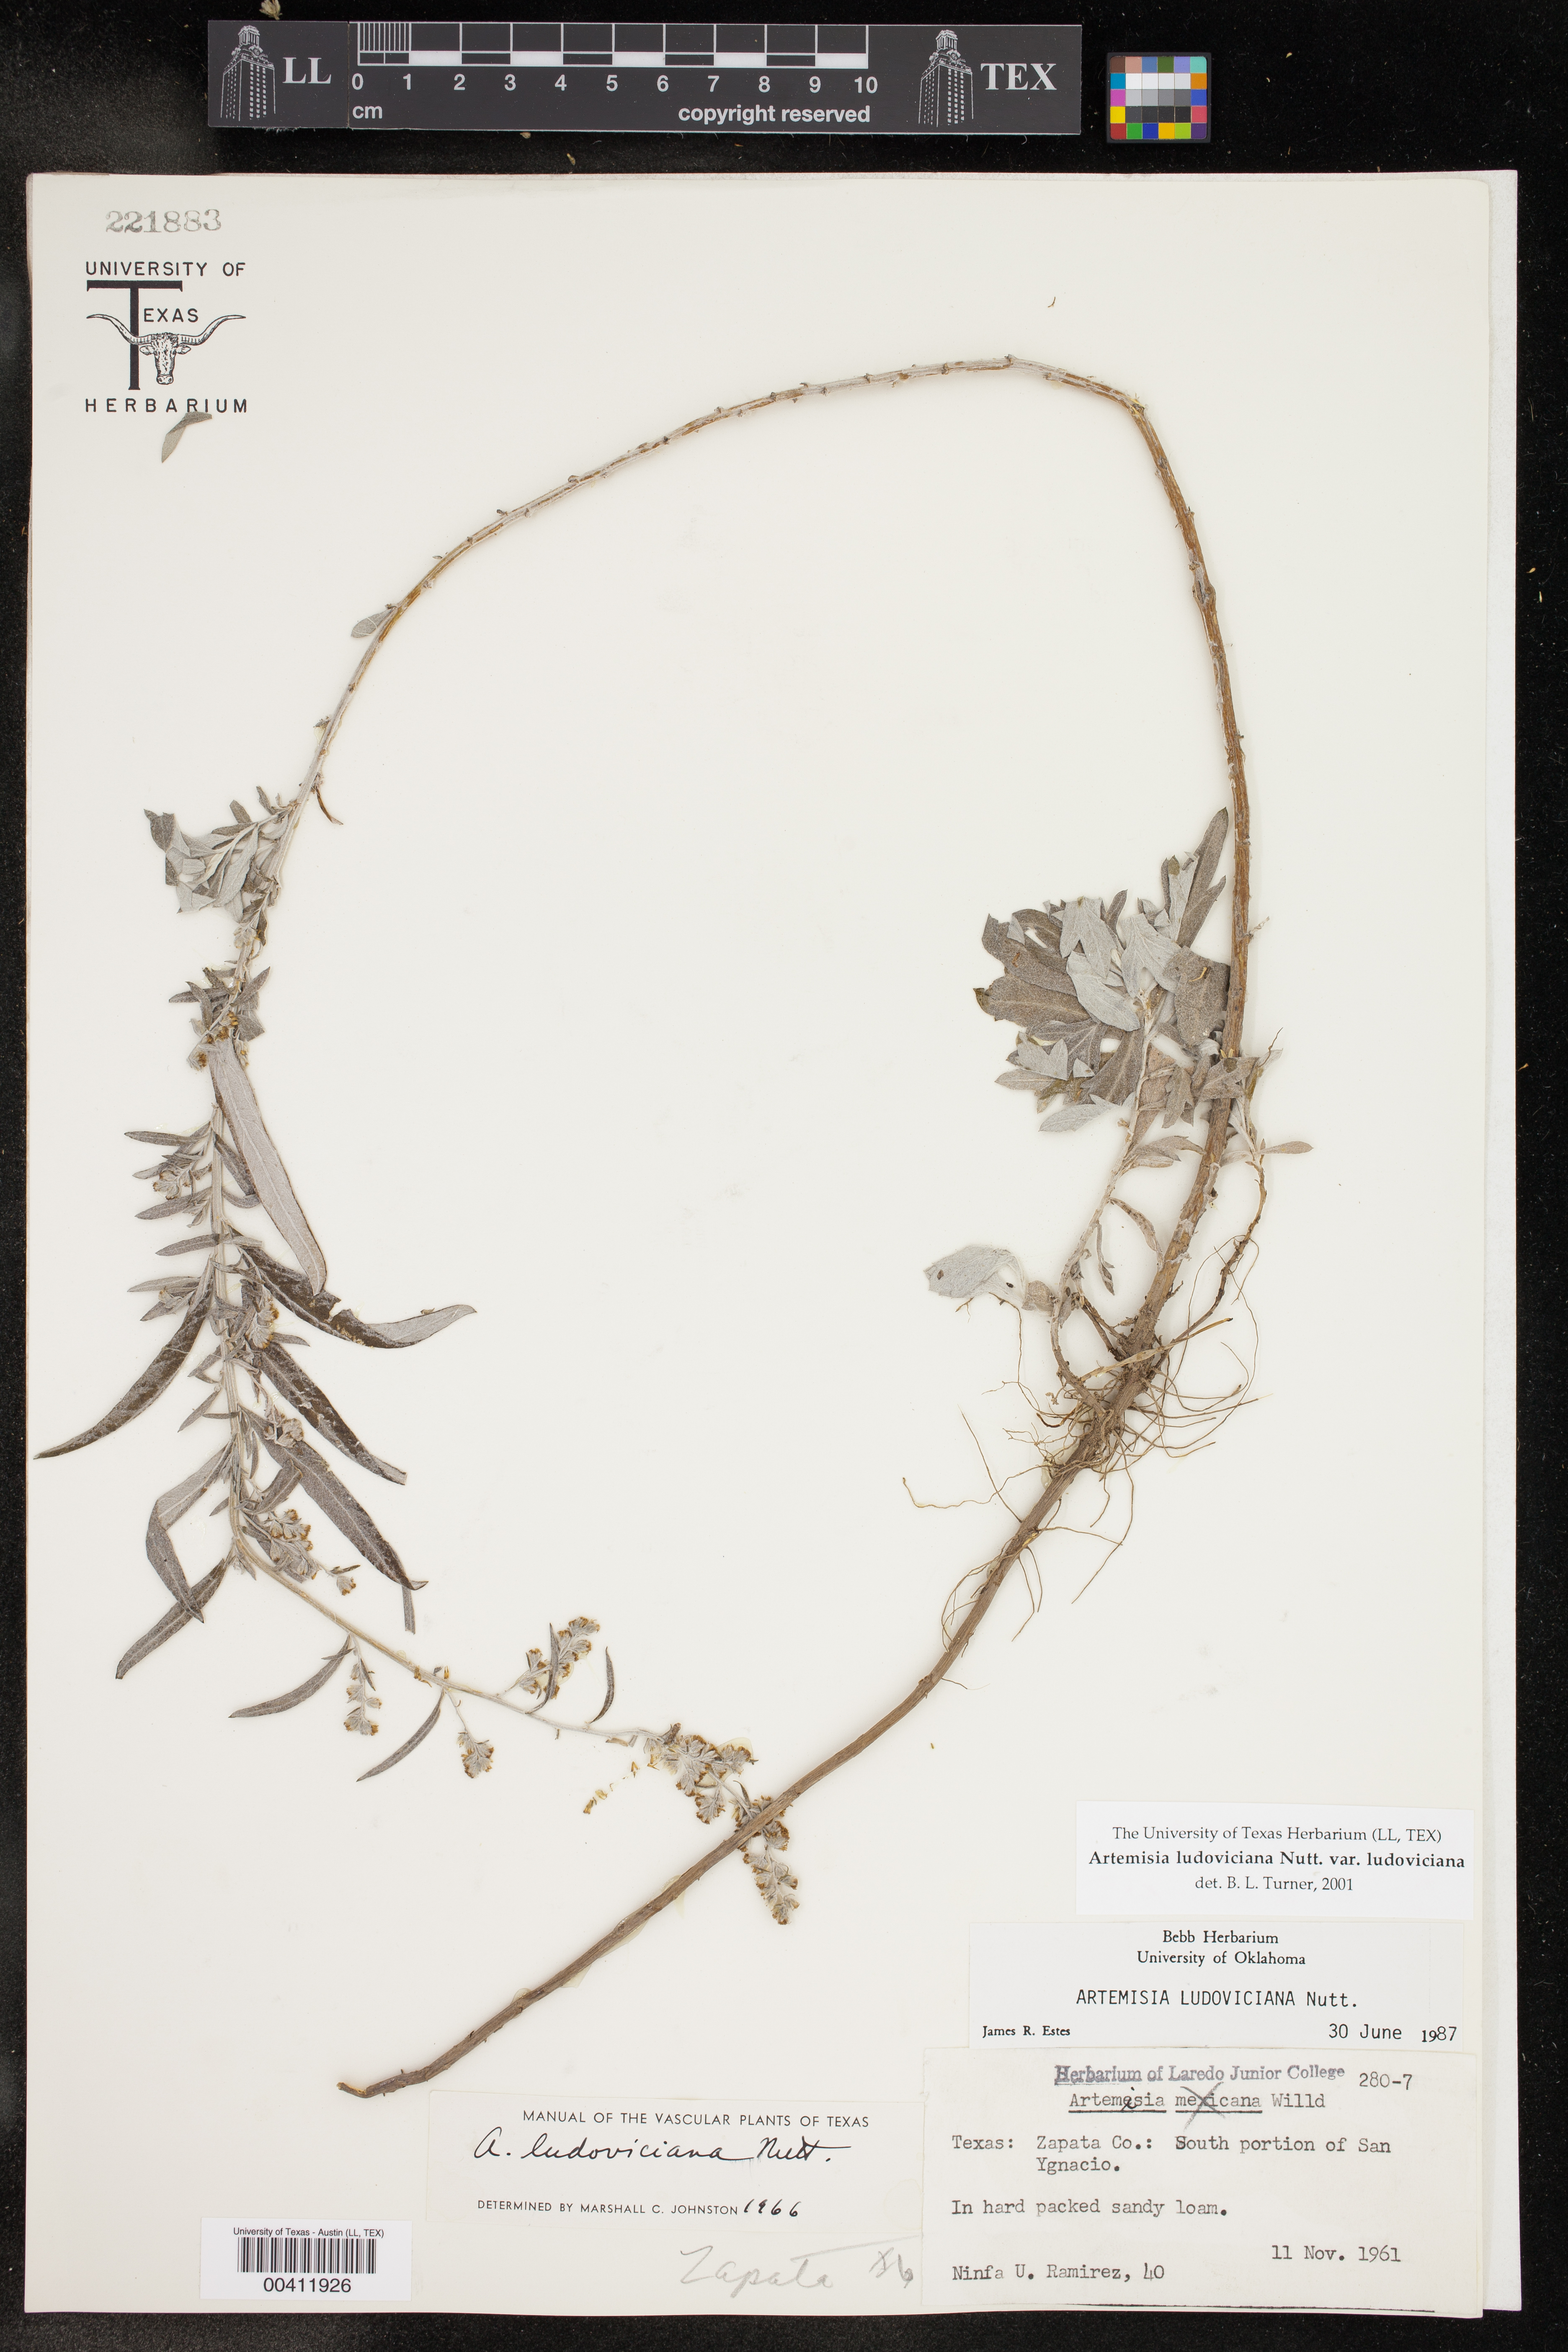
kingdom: Plantae
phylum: Tracheophyta
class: Magnoliopsida
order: Asterales
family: Asteraceae
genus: Artemisia
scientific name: Artemisia ludoviciana
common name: Western mugwort
